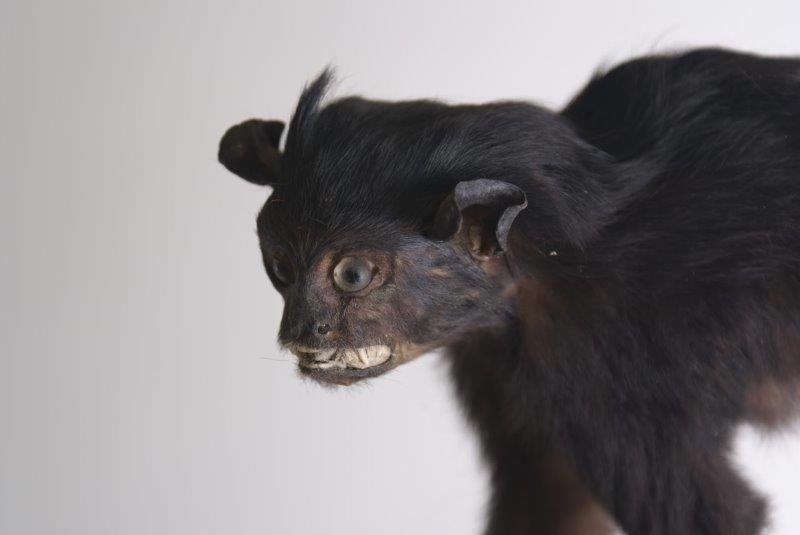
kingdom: Animalia
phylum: Chordata
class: Mammalia
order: Primates
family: Callitrichidae
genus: Leontocebus
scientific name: Leontocebus fuscicollis
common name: Brown-mantled Tamarin
